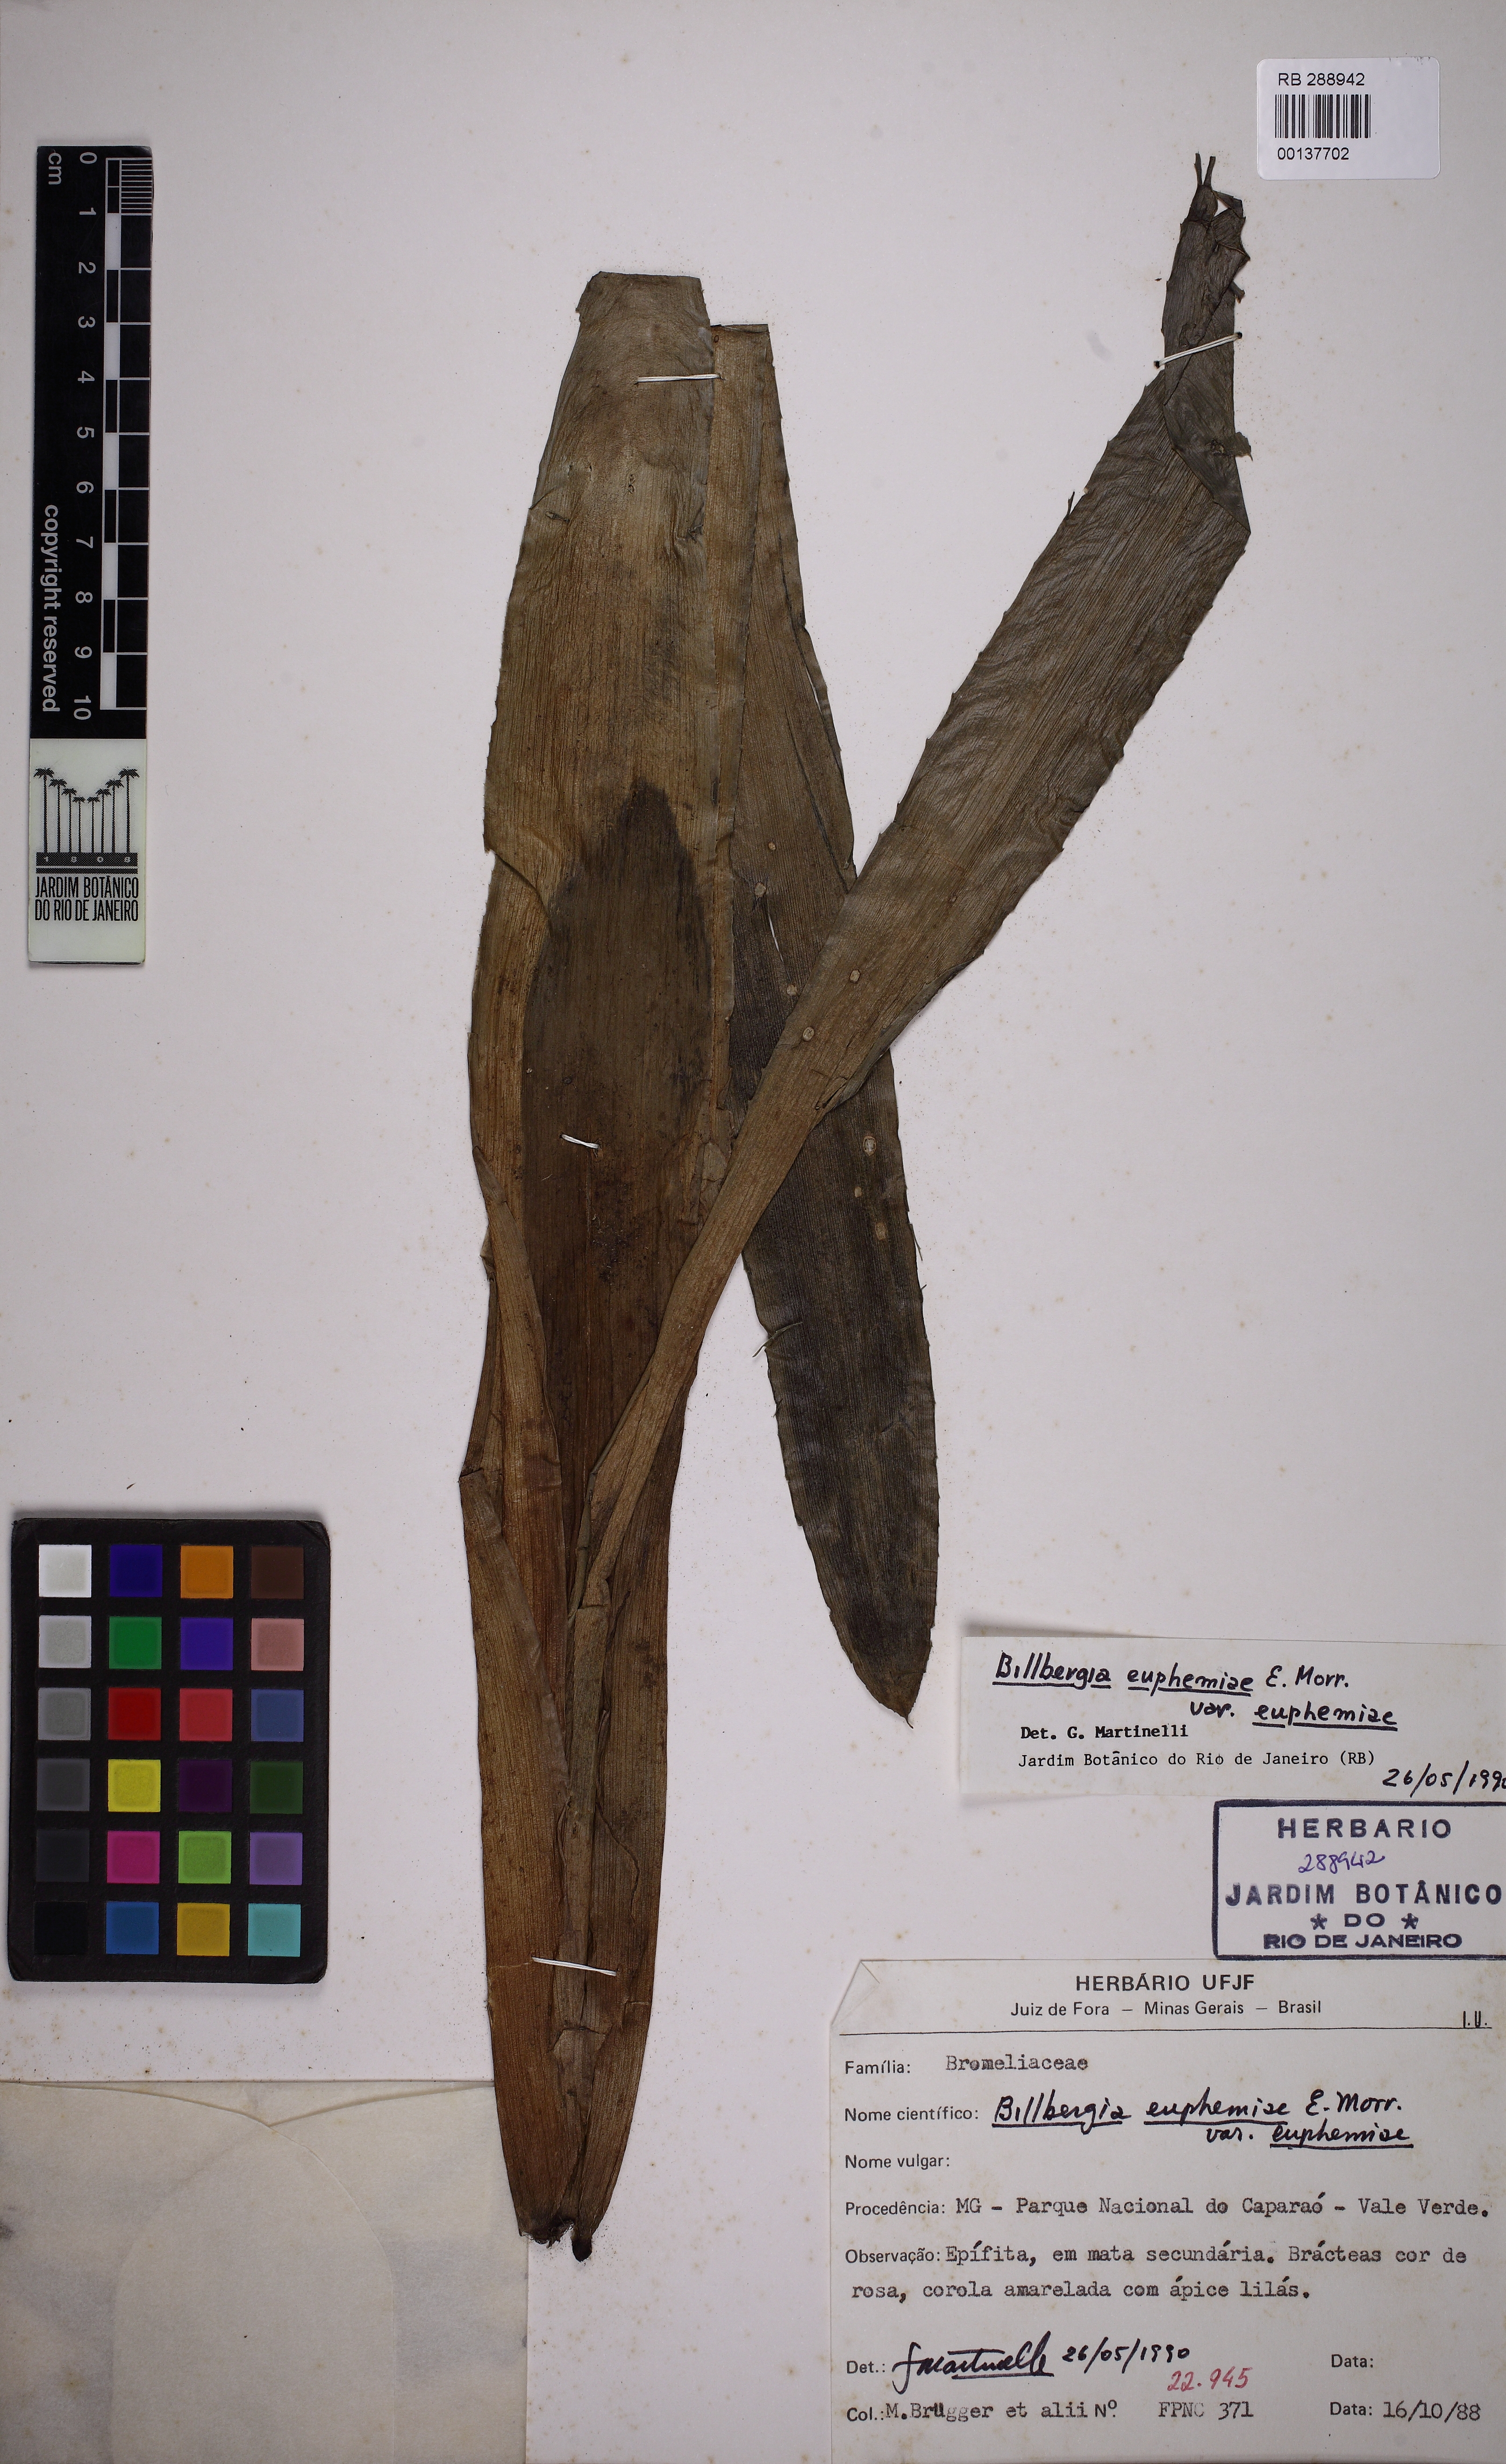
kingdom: Plantae
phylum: Tracheophyta
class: Liliopsida
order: Poales
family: Bromeliaceae
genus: Billbergia
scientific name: Billbergia euphemiae
